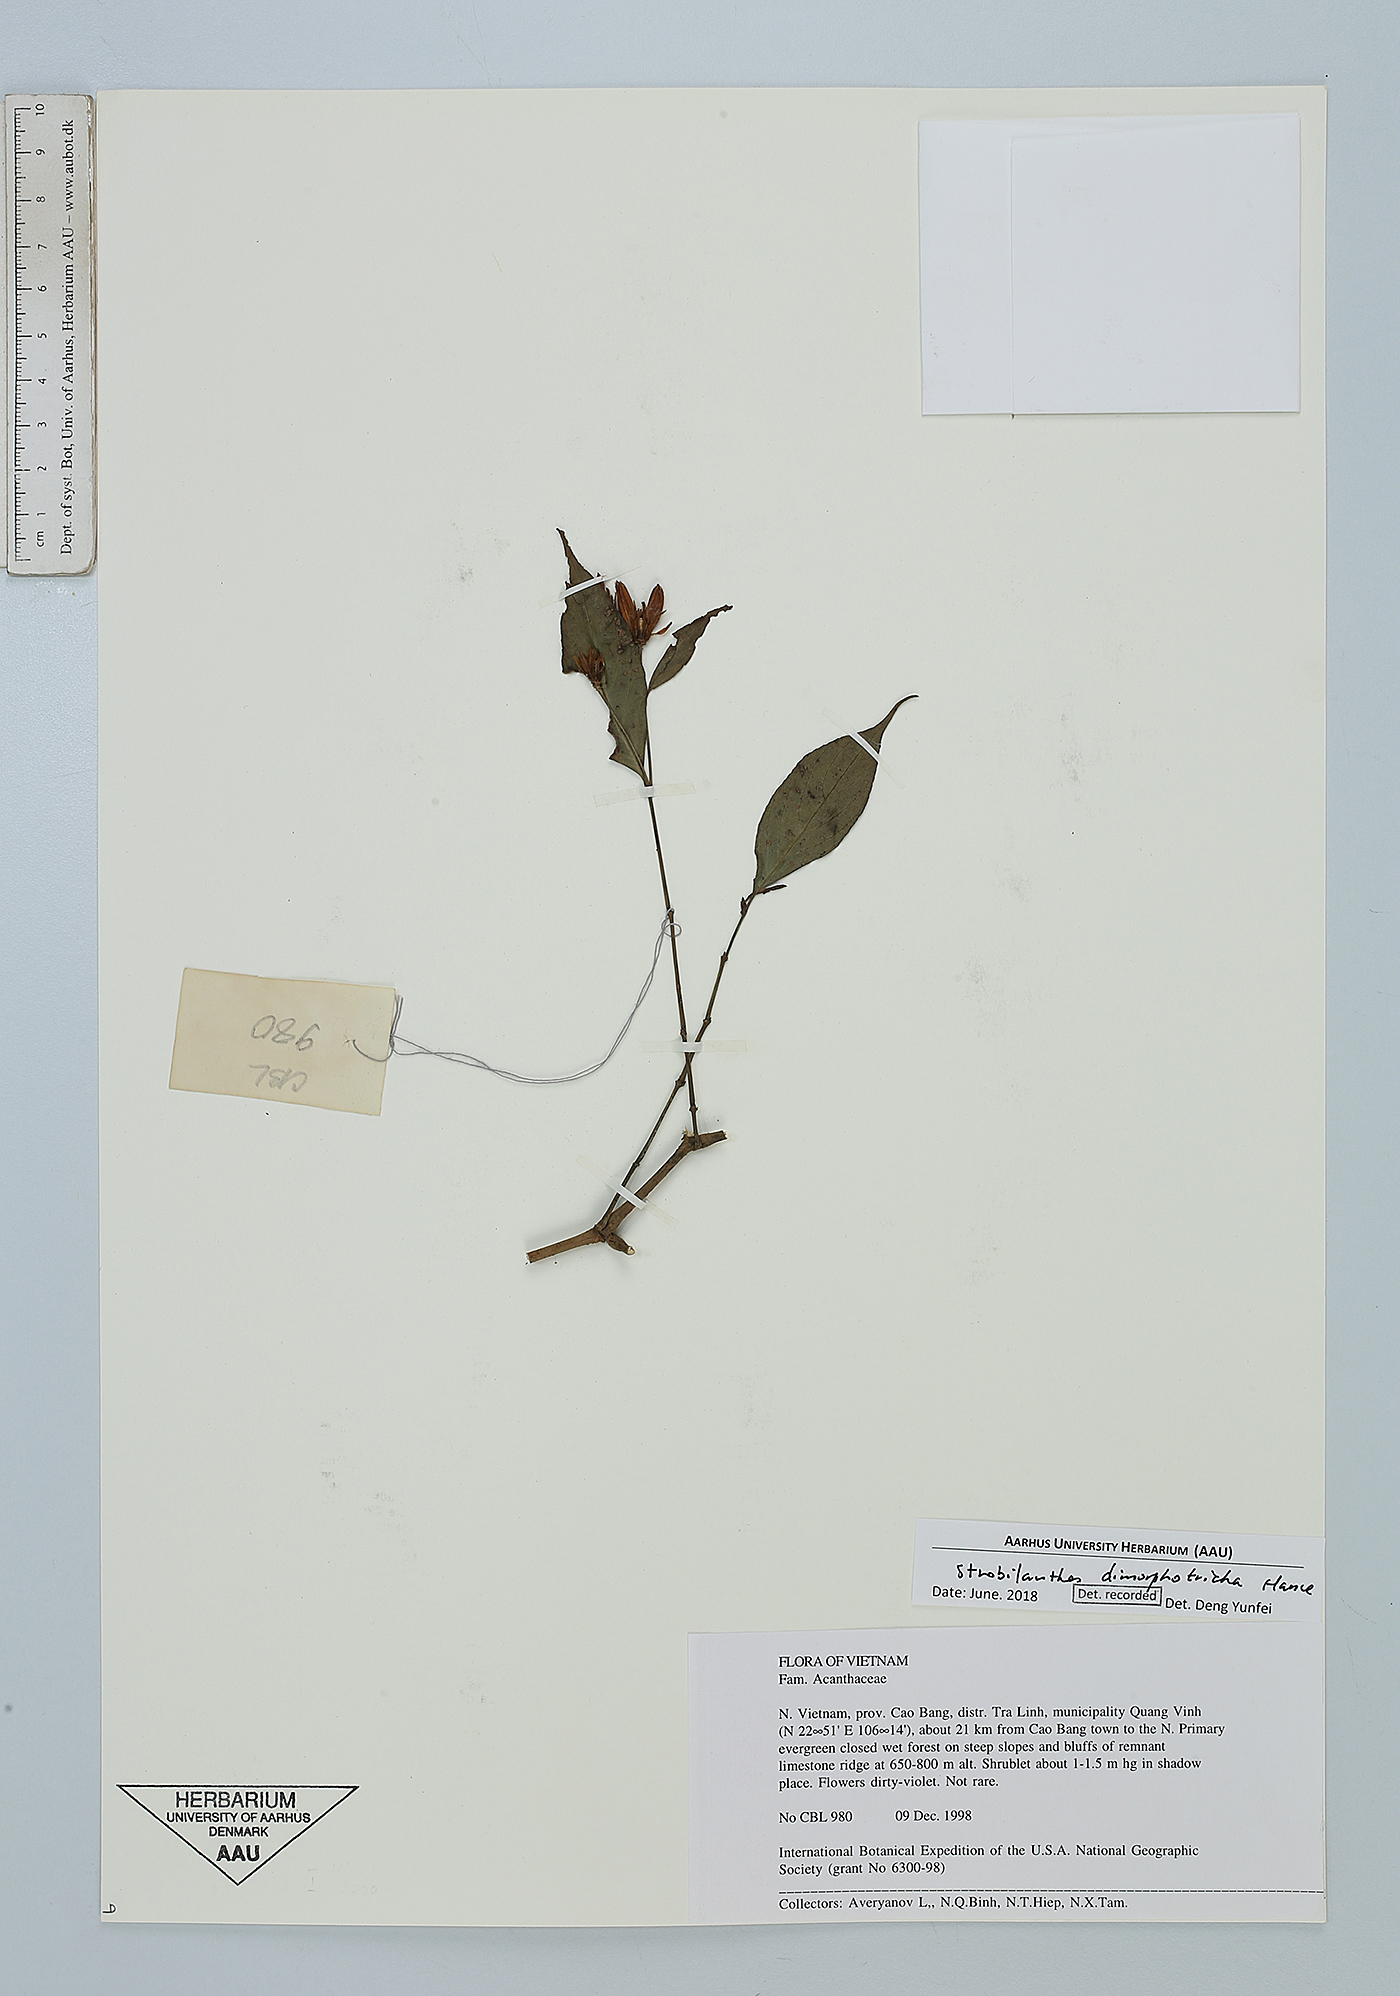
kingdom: Plantae
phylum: Tracheophyta
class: Magnoliopsida
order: Lamiales
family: Acanthaceae
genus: Strobilanthes
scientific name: Strobilanthes dimorphotricha
